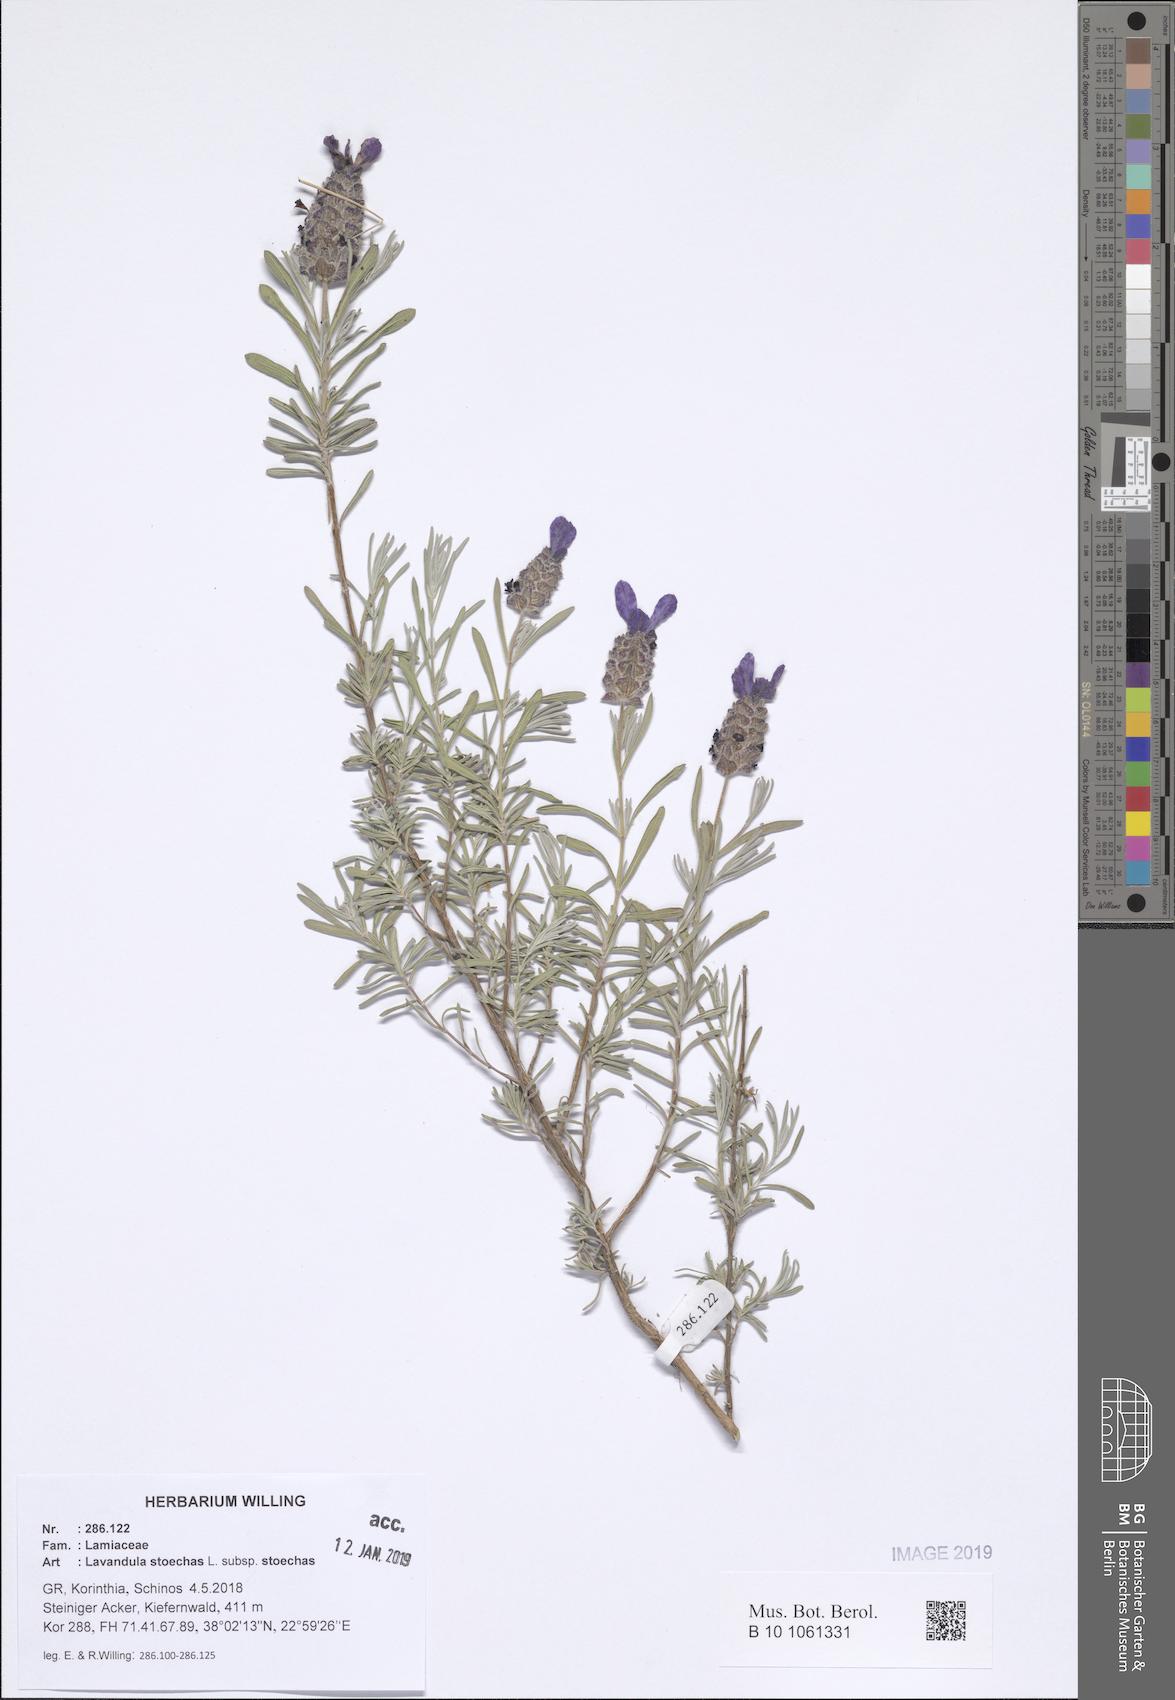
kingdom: Plantae
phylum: Tracheophyta
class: Magnoliopsida
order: Lamiales
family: Lamiaceae
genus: Lavandula
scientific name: Lavandula stoechas
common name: French lavender
